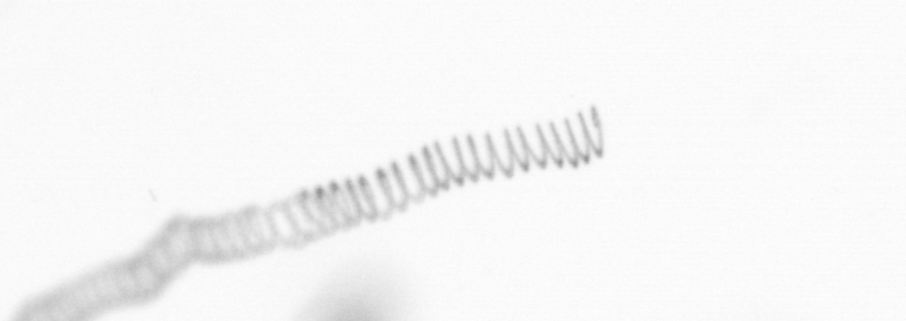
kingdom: Chromista
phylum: Ochrophyta
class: Bacillariophyceae
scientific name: Bacillariophyceae
